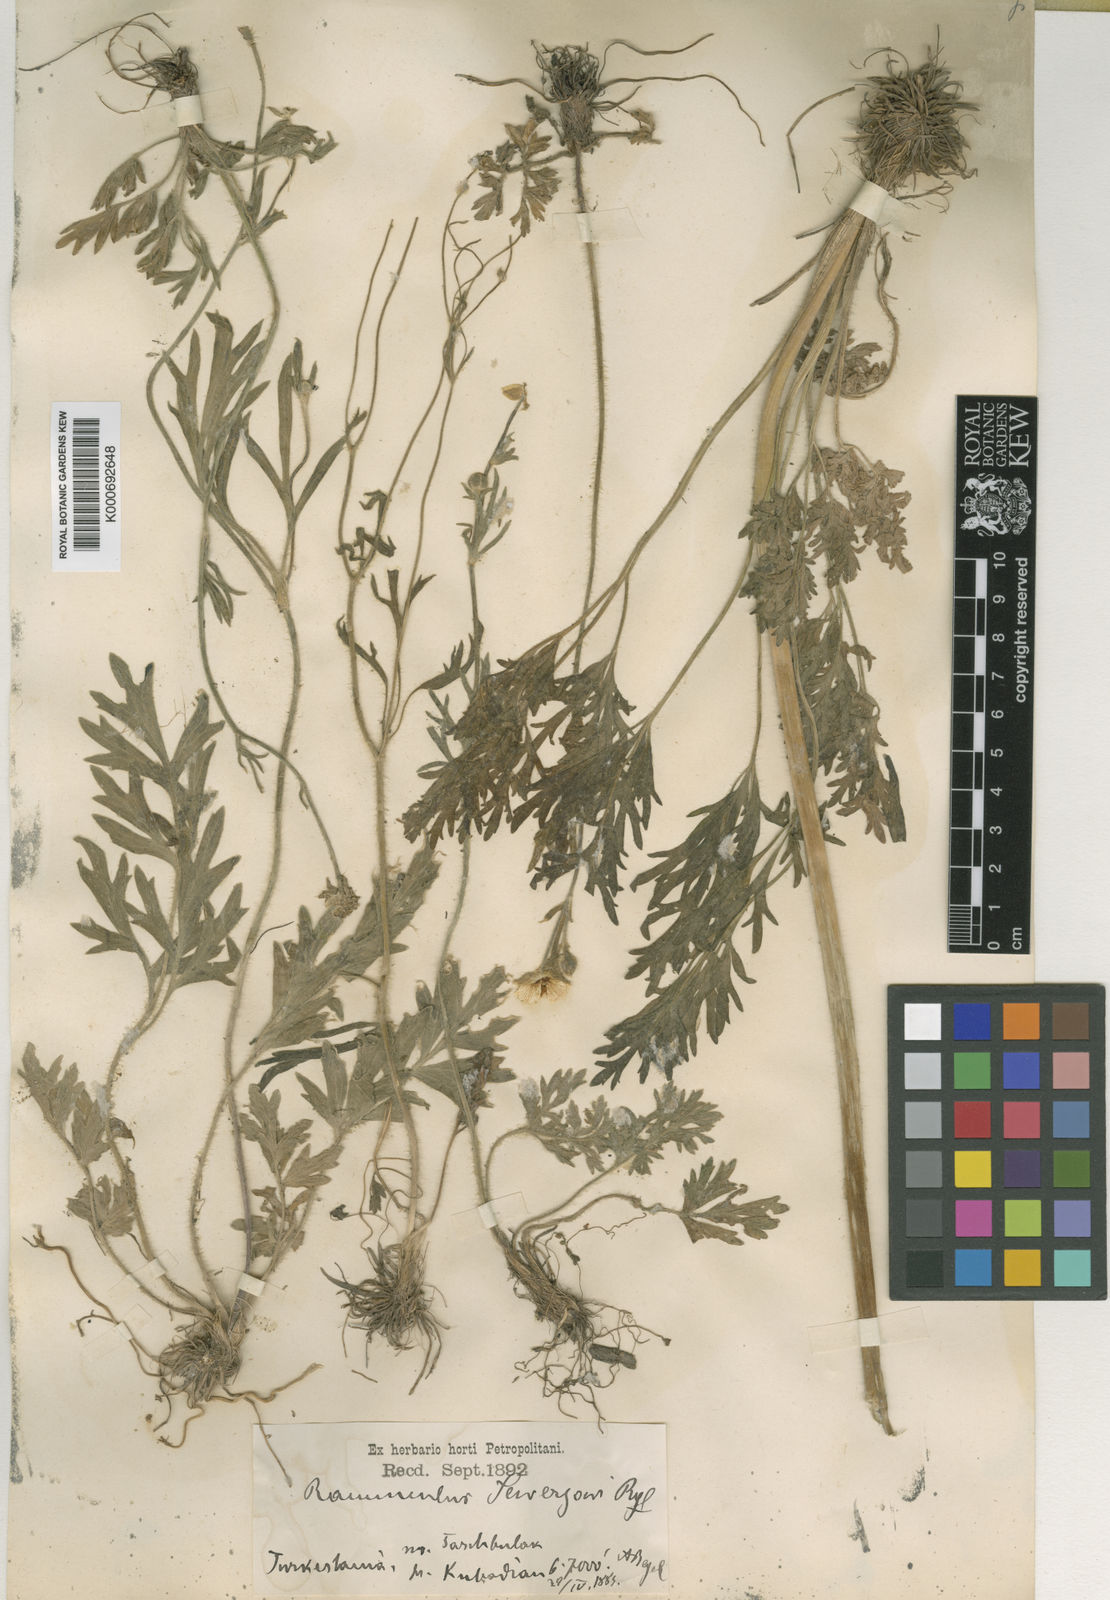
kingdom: Plantae
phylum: Tracheophyta
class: Magnoliopsida
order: Ranunculales
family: Ranunculaceae
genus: Ranunculus
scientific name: Ranunculus sewerzowii
